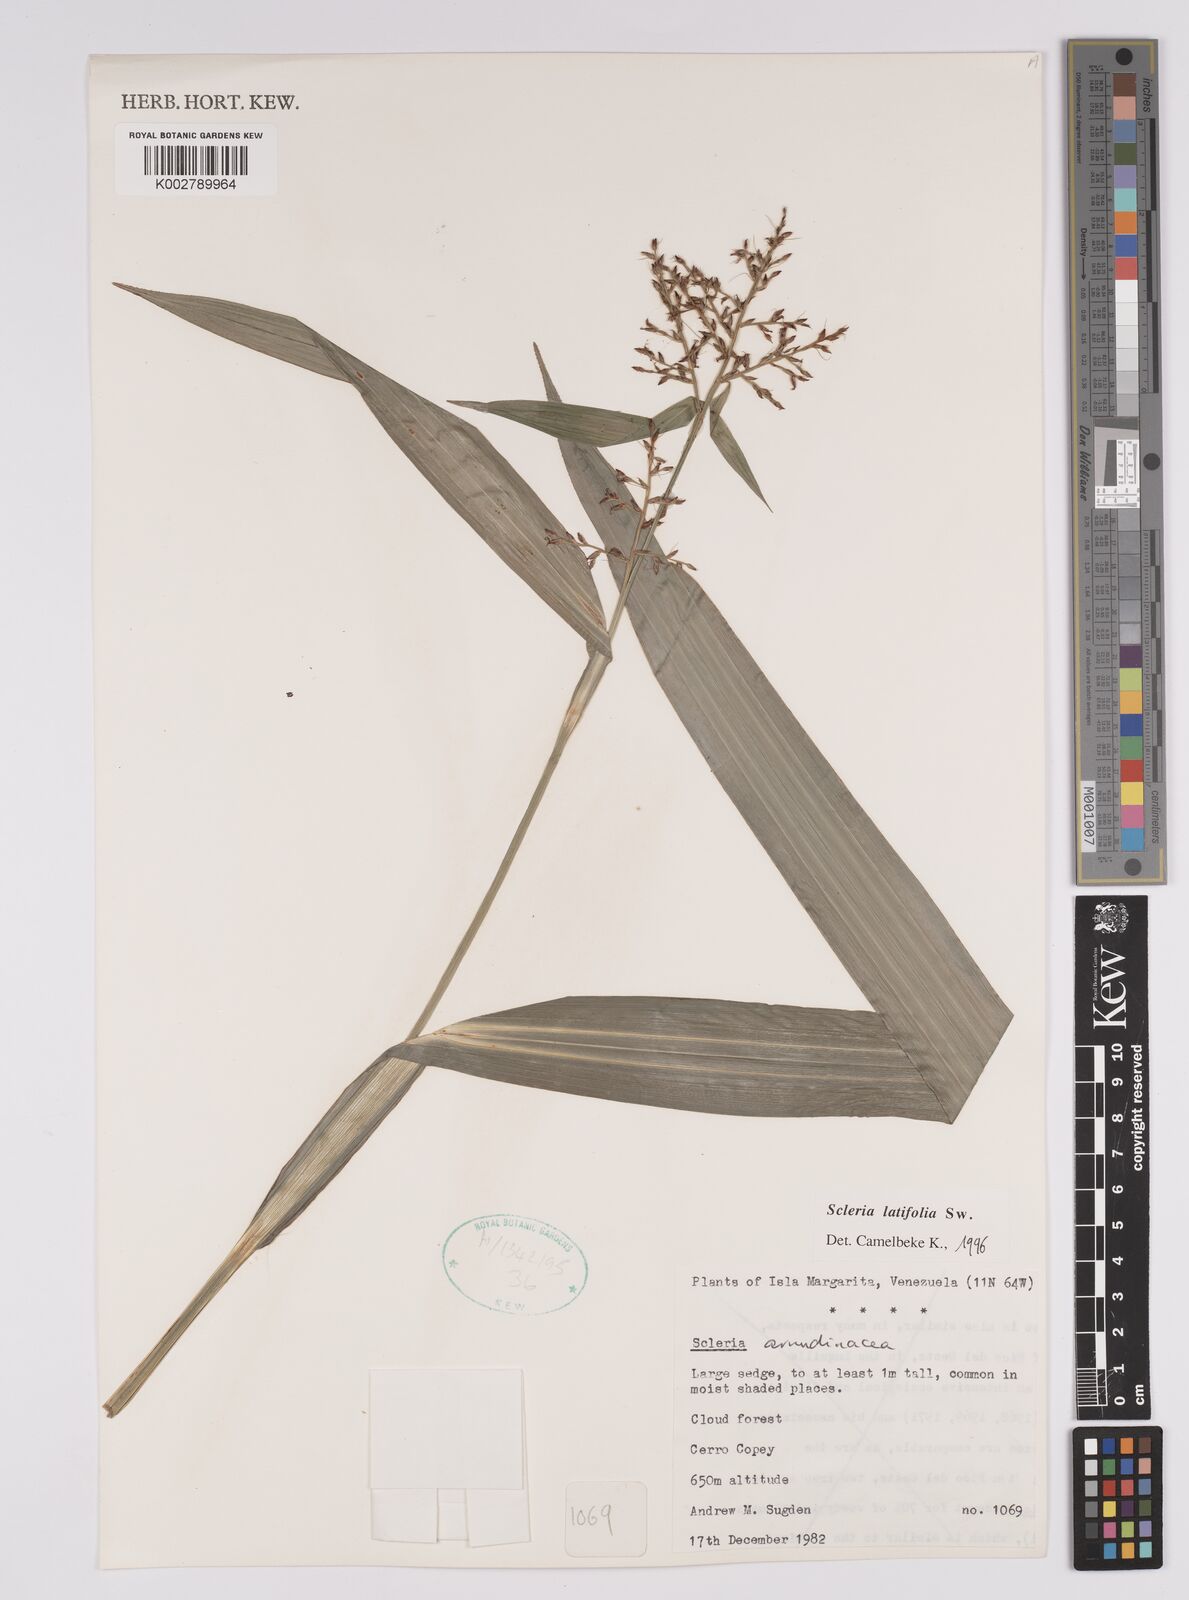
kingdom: Plantae
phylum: Tracheophyta
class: Liliopsida
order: Poales
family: Cyperaceae
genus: Scleria
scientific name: Scleria latifolia
